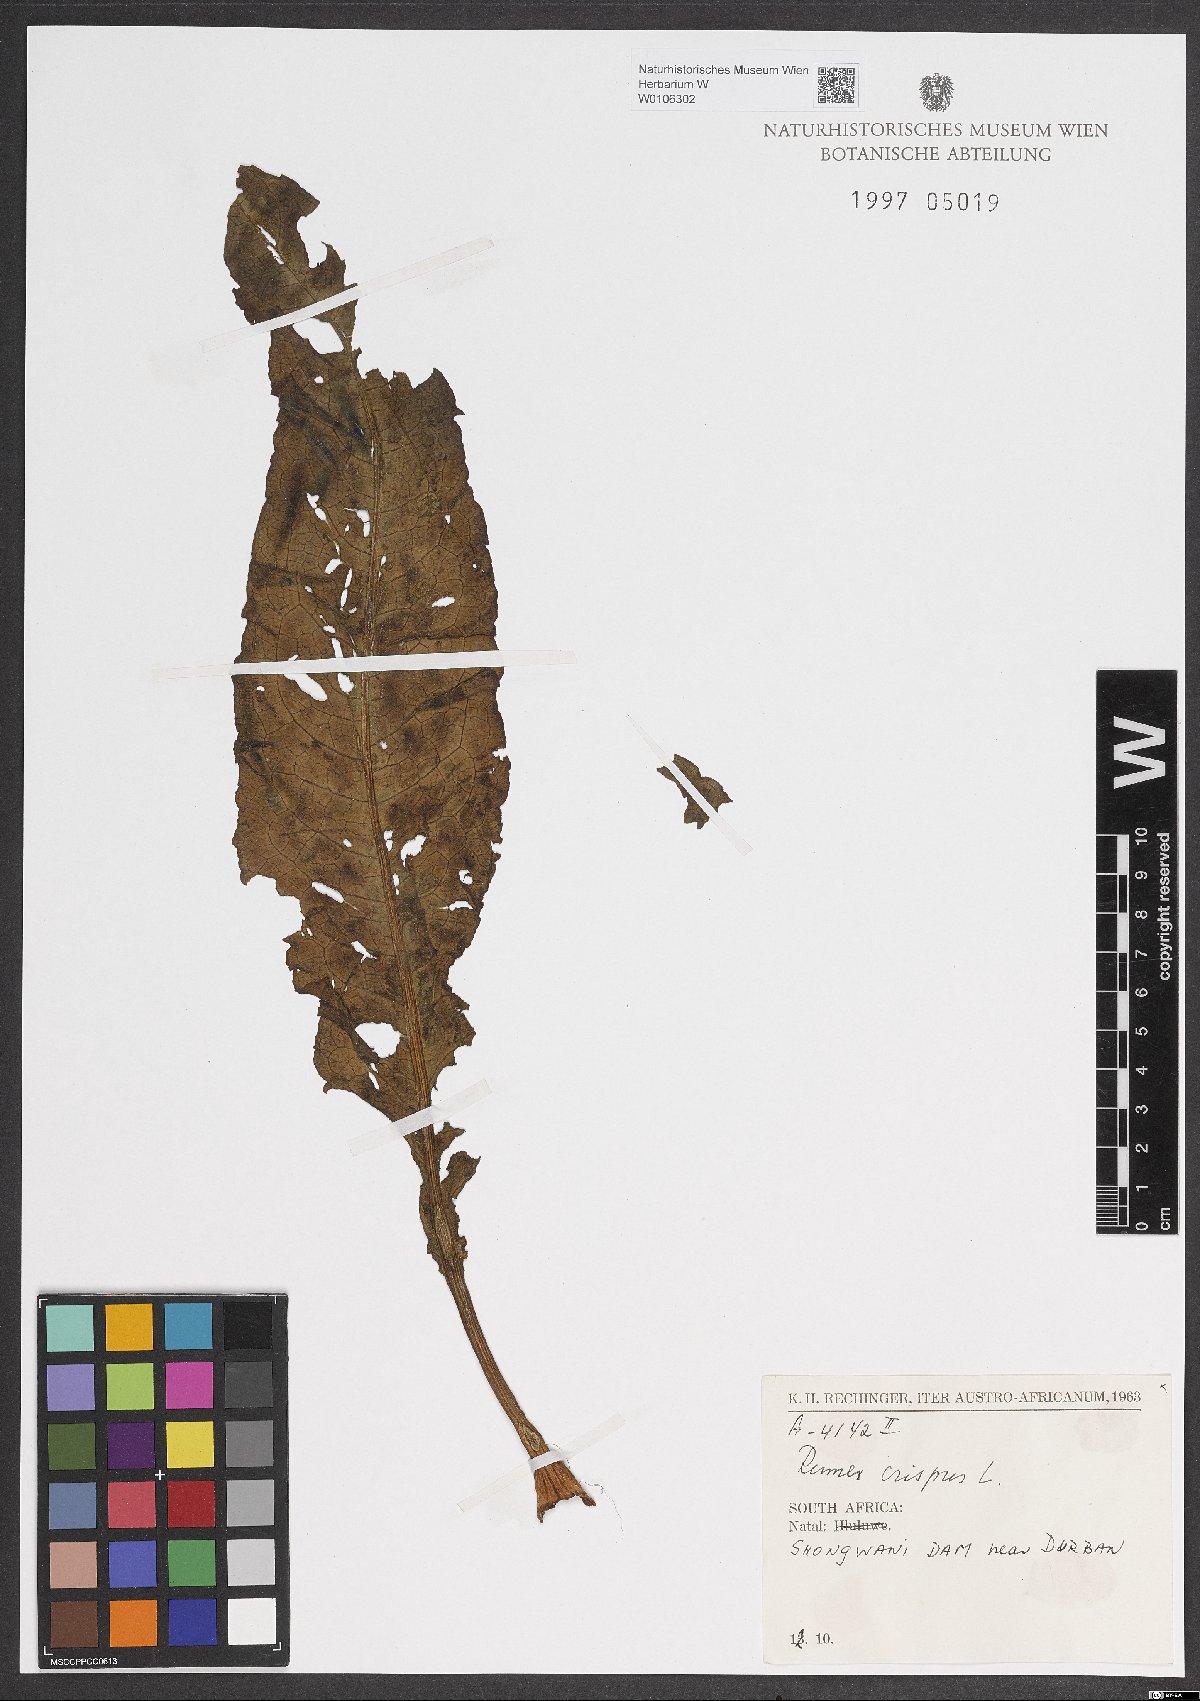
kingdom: Plantae
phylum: Tracheophyta
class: Magnoliopsida
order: Caryophyllales
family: Polygonaceae
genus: Rumex
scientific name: Rumex crispus
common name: Curled dock
